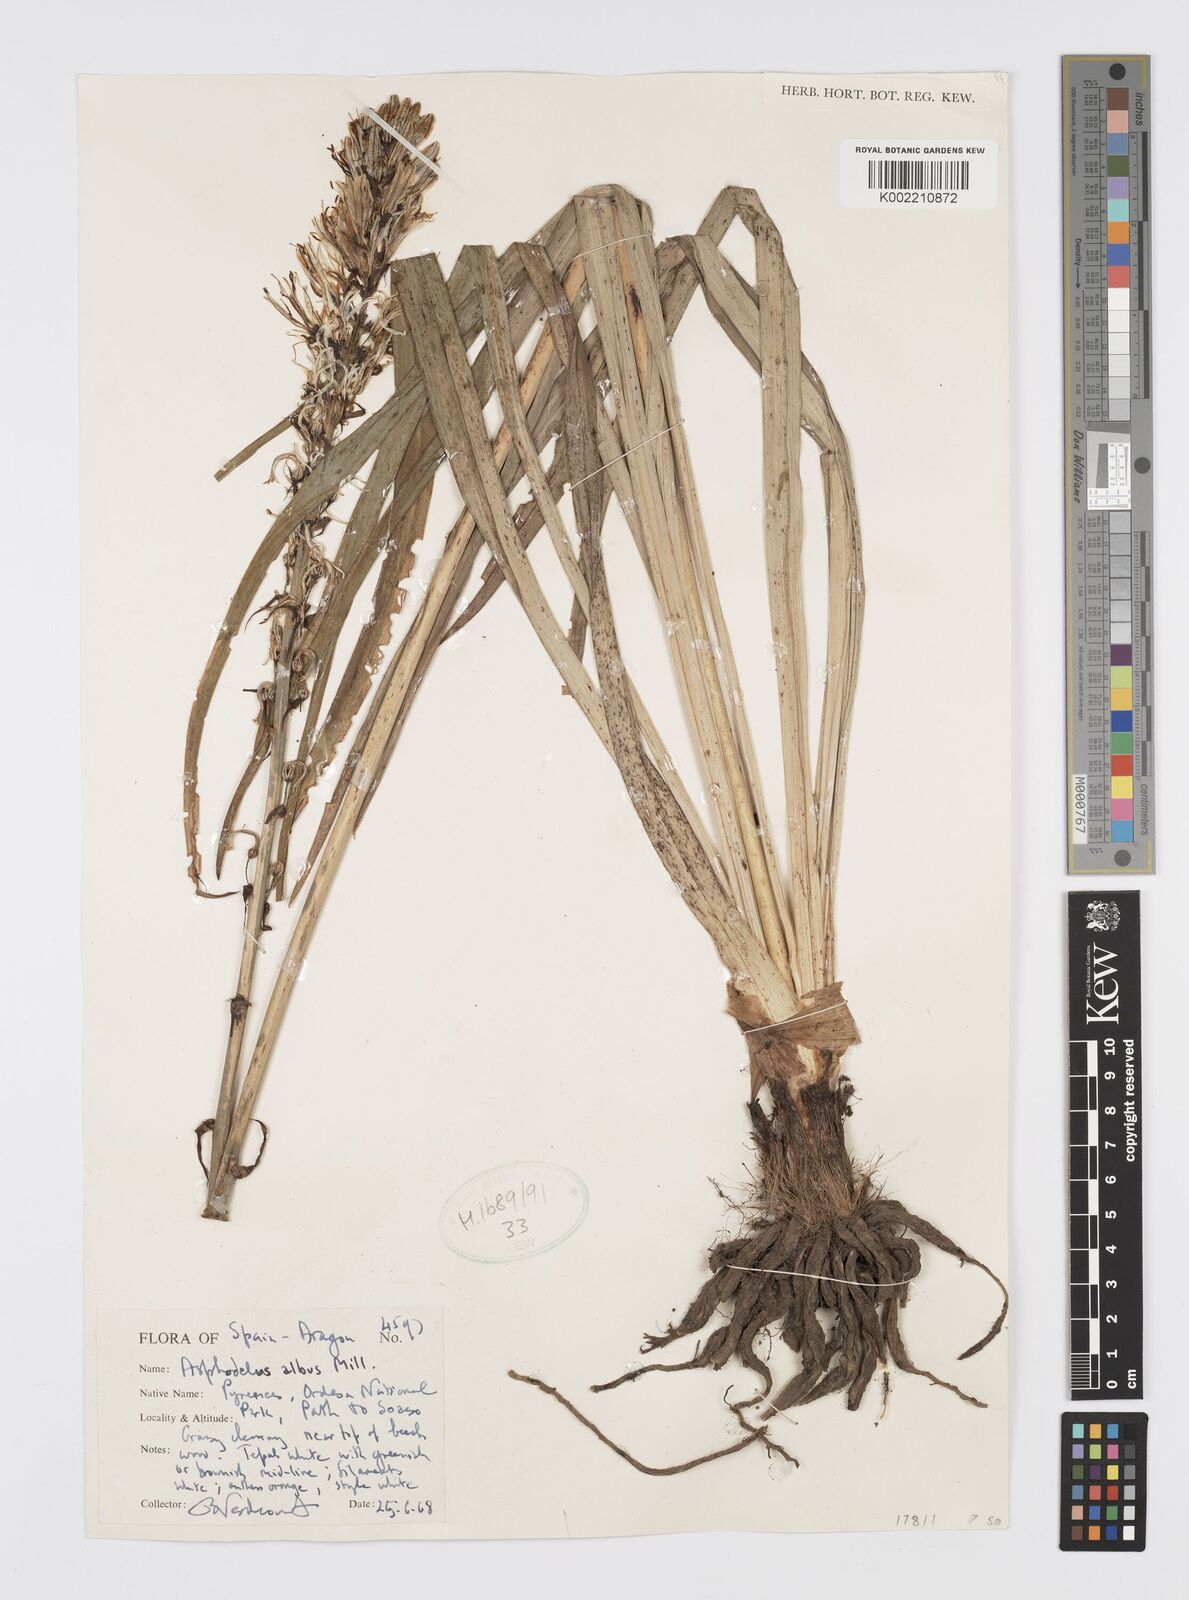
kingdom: Plantae
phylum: Tracheophyta
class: Liliopsida
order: Asparagales
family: Asphodelaceae
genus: Asphodelus
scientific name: Asphodelus albus
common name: White asphodel
